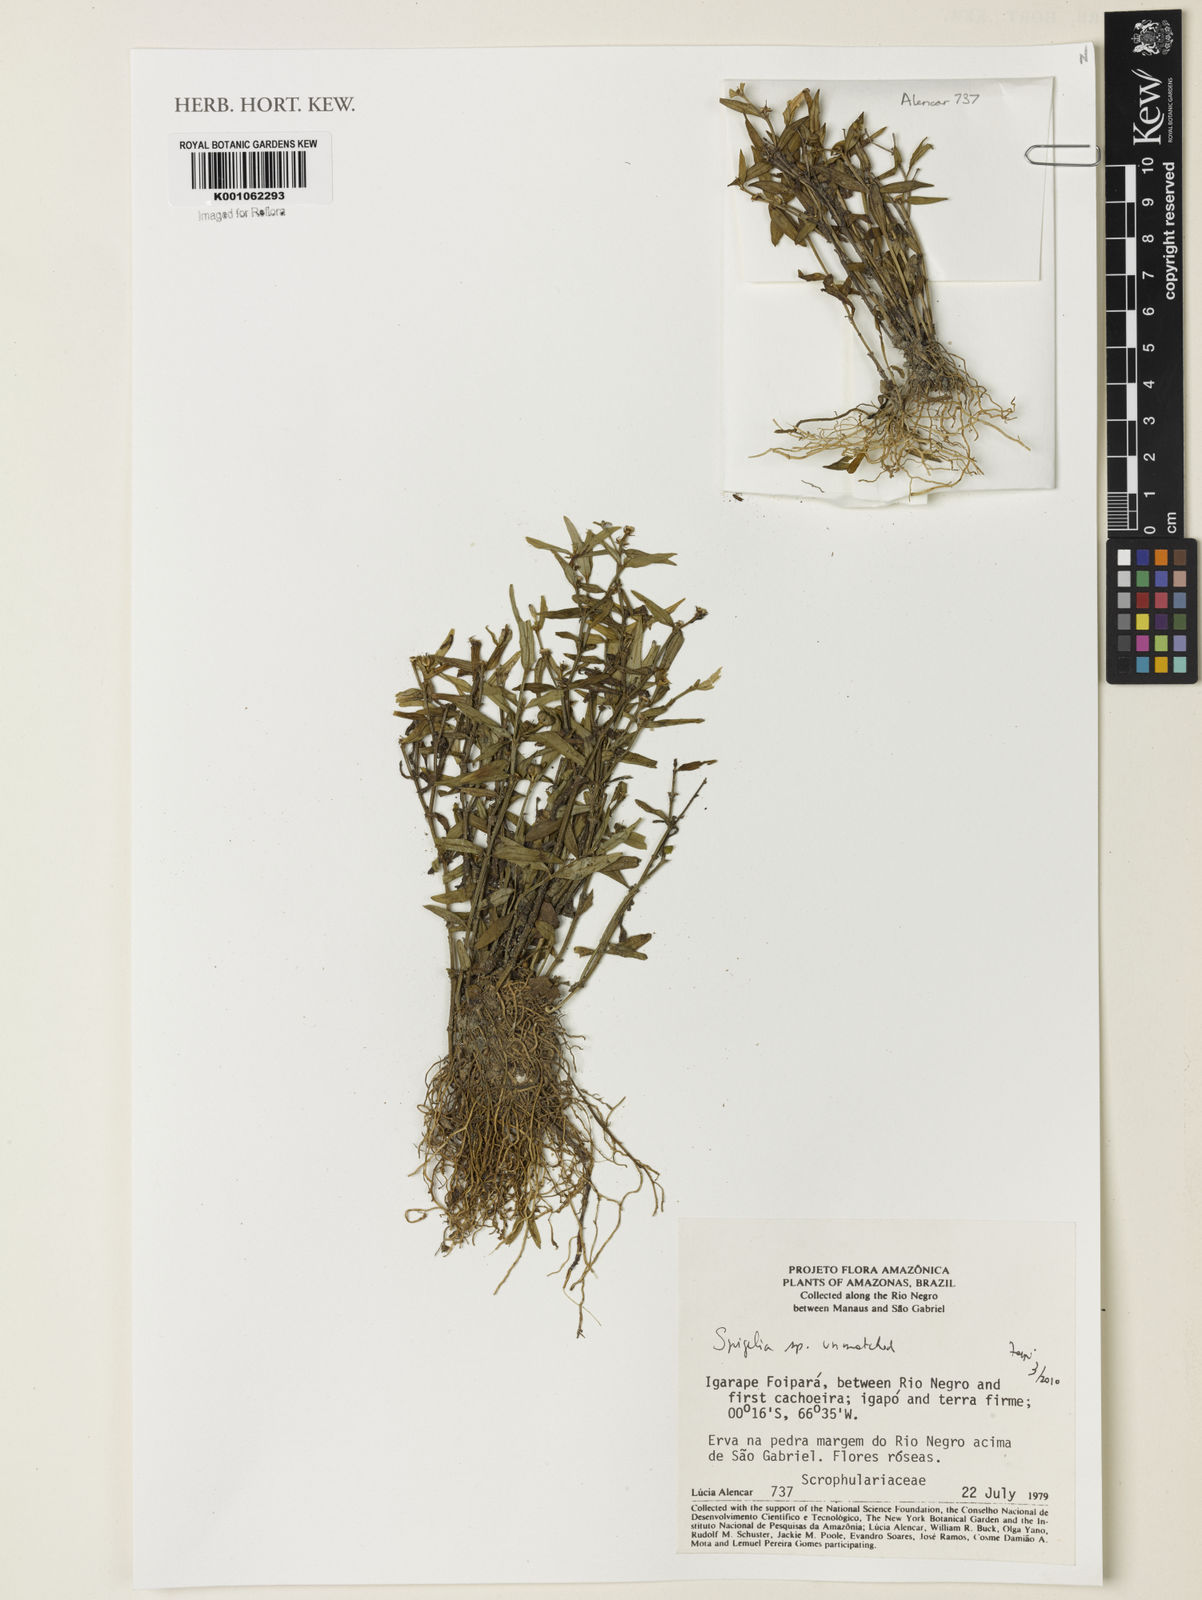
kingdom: Plantae
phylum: Tracheophyta
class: Magnoliopsida
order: Gentianales
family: Loganiaceae
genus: Spigelia
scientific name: Spigelia
